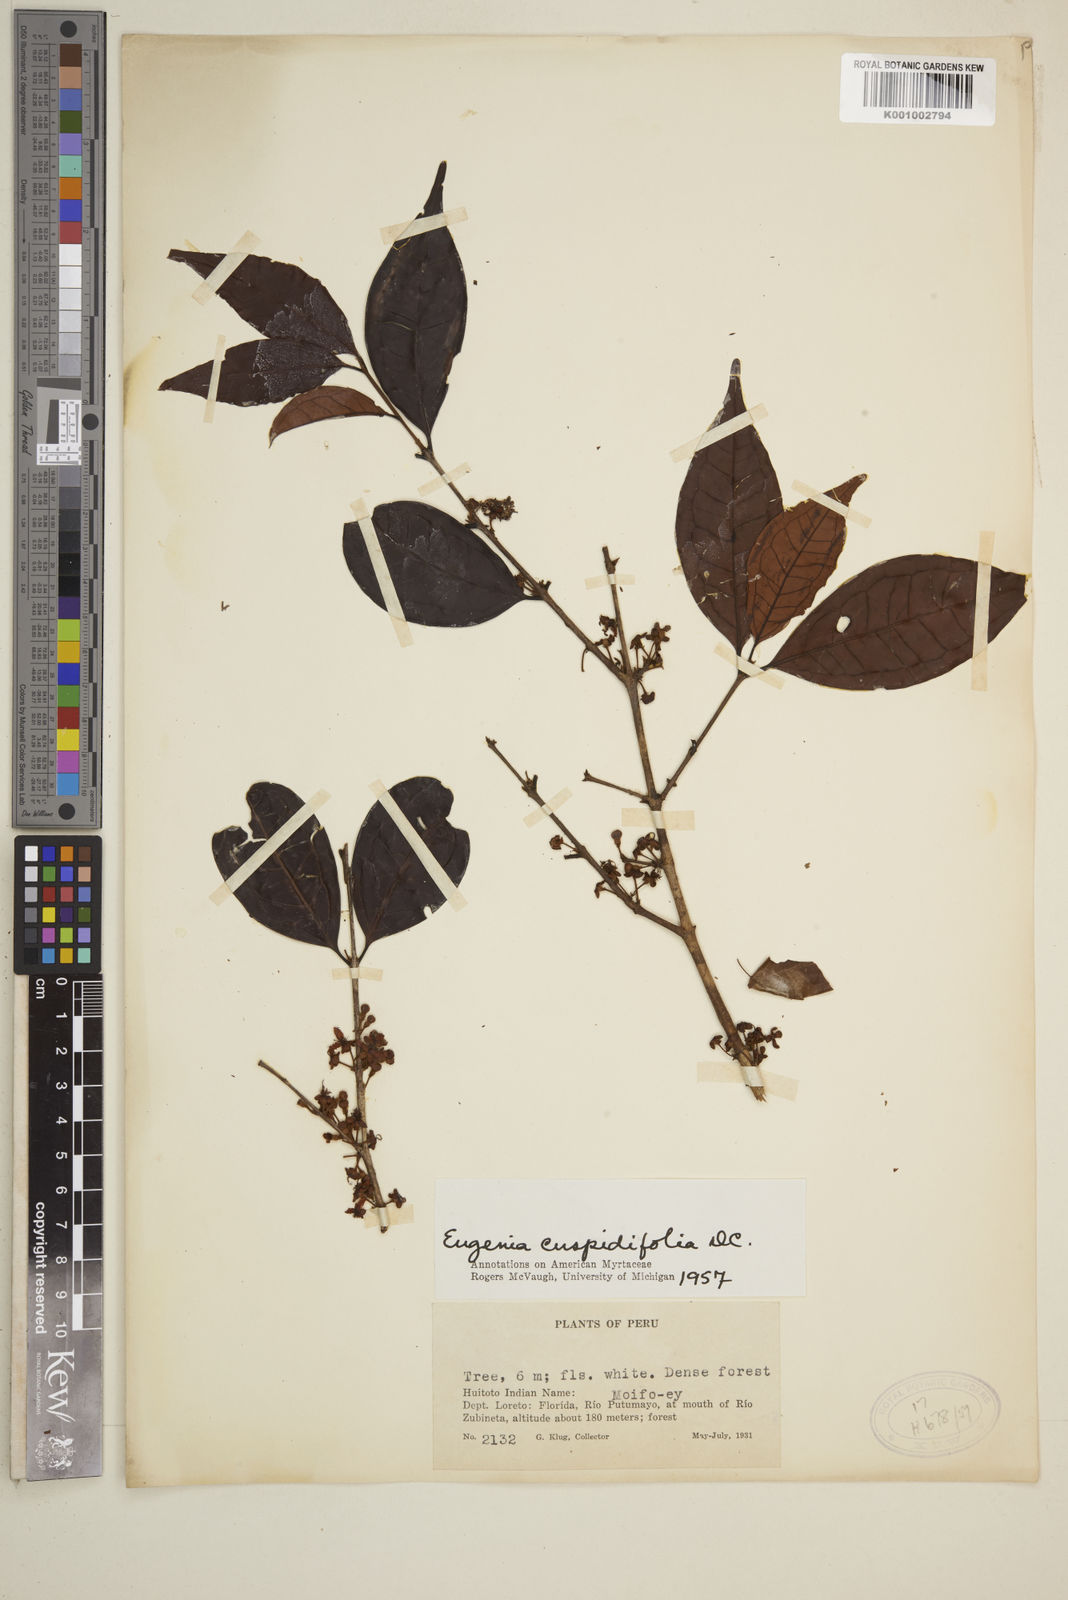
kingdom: Plantae
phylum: Tracheophyta
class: Magnoliopsida
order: Myrtales
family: Myrtaceae
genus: Eugenia
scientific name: Eugenia cuspidifolia
